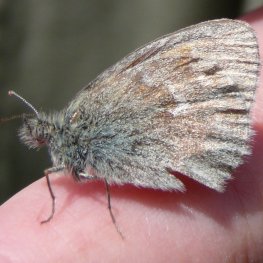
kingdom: Animalia
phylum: Arthropoda
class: Insecta
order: Lepidoptera
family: Nymphalidae
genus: Coenonympha
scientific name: Coenonympha tullia
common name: Large Heath
